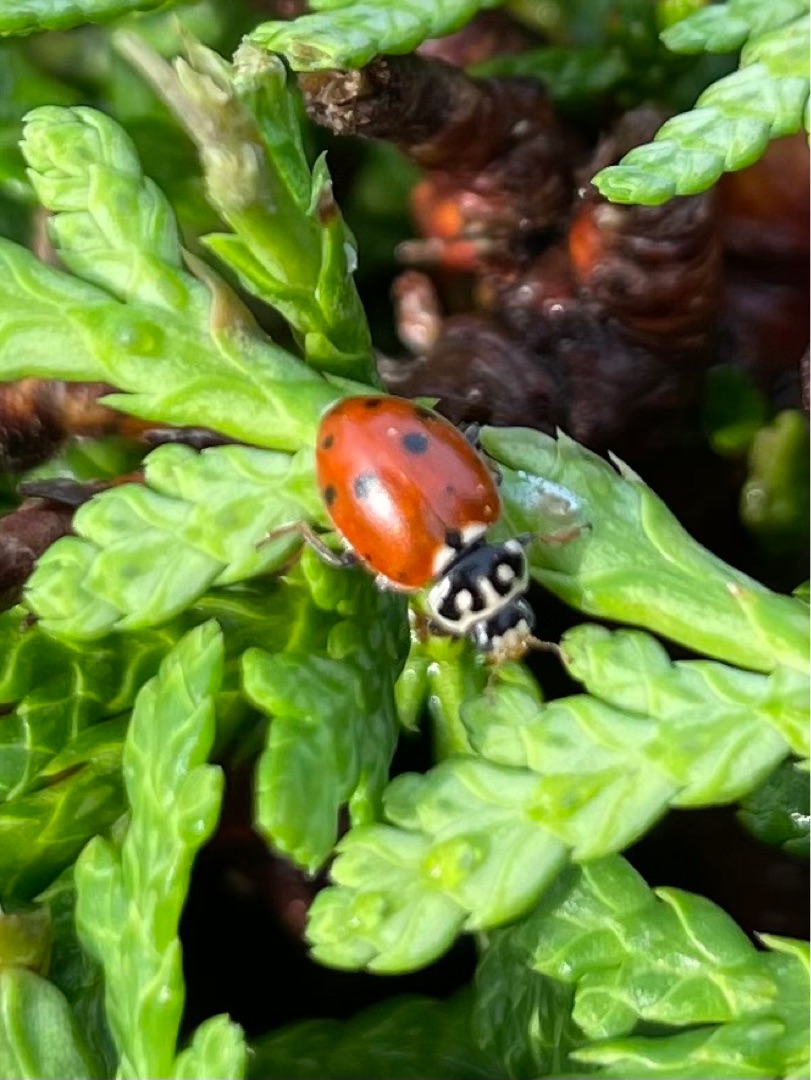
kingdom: Animalia
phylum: Arthropoda
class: Insecta
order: Coleoptera
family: Coccinellidae
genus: Hippodamia
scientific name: Hippodamia variegata
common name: Adonis' mariehøne
